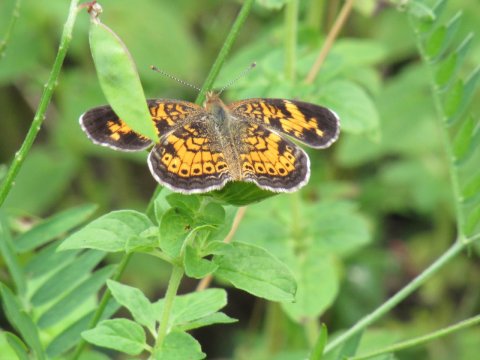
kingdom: Animalia
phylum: Arthropoda
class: Insecta
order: Lepidoptera
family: Nymphalidae
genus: Phyciodes
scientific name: Phyciodes tharos
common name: Pearl Crescent
